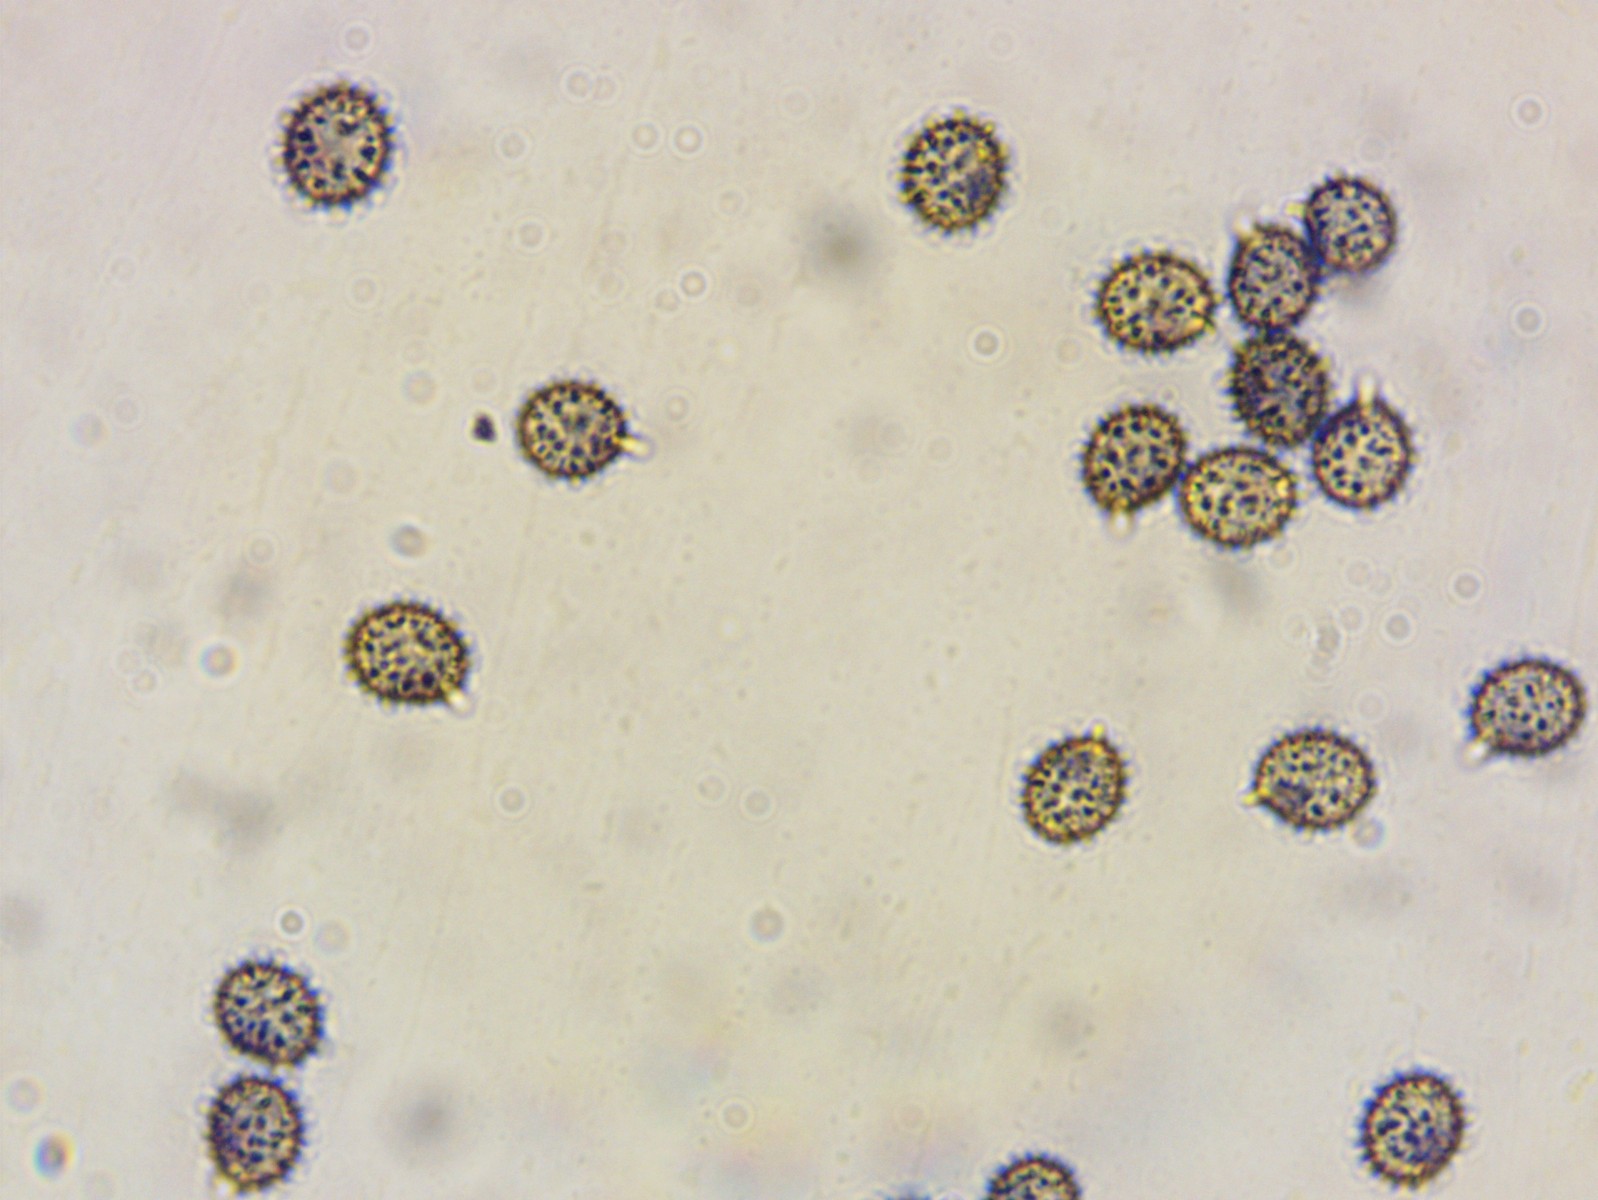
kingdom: Fungi
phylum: Basidiomycota
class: Agaricomycetes
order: Russulales
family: Russulaceae
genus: Russula
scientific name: Russula laeta
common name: orangerosa skørhat
